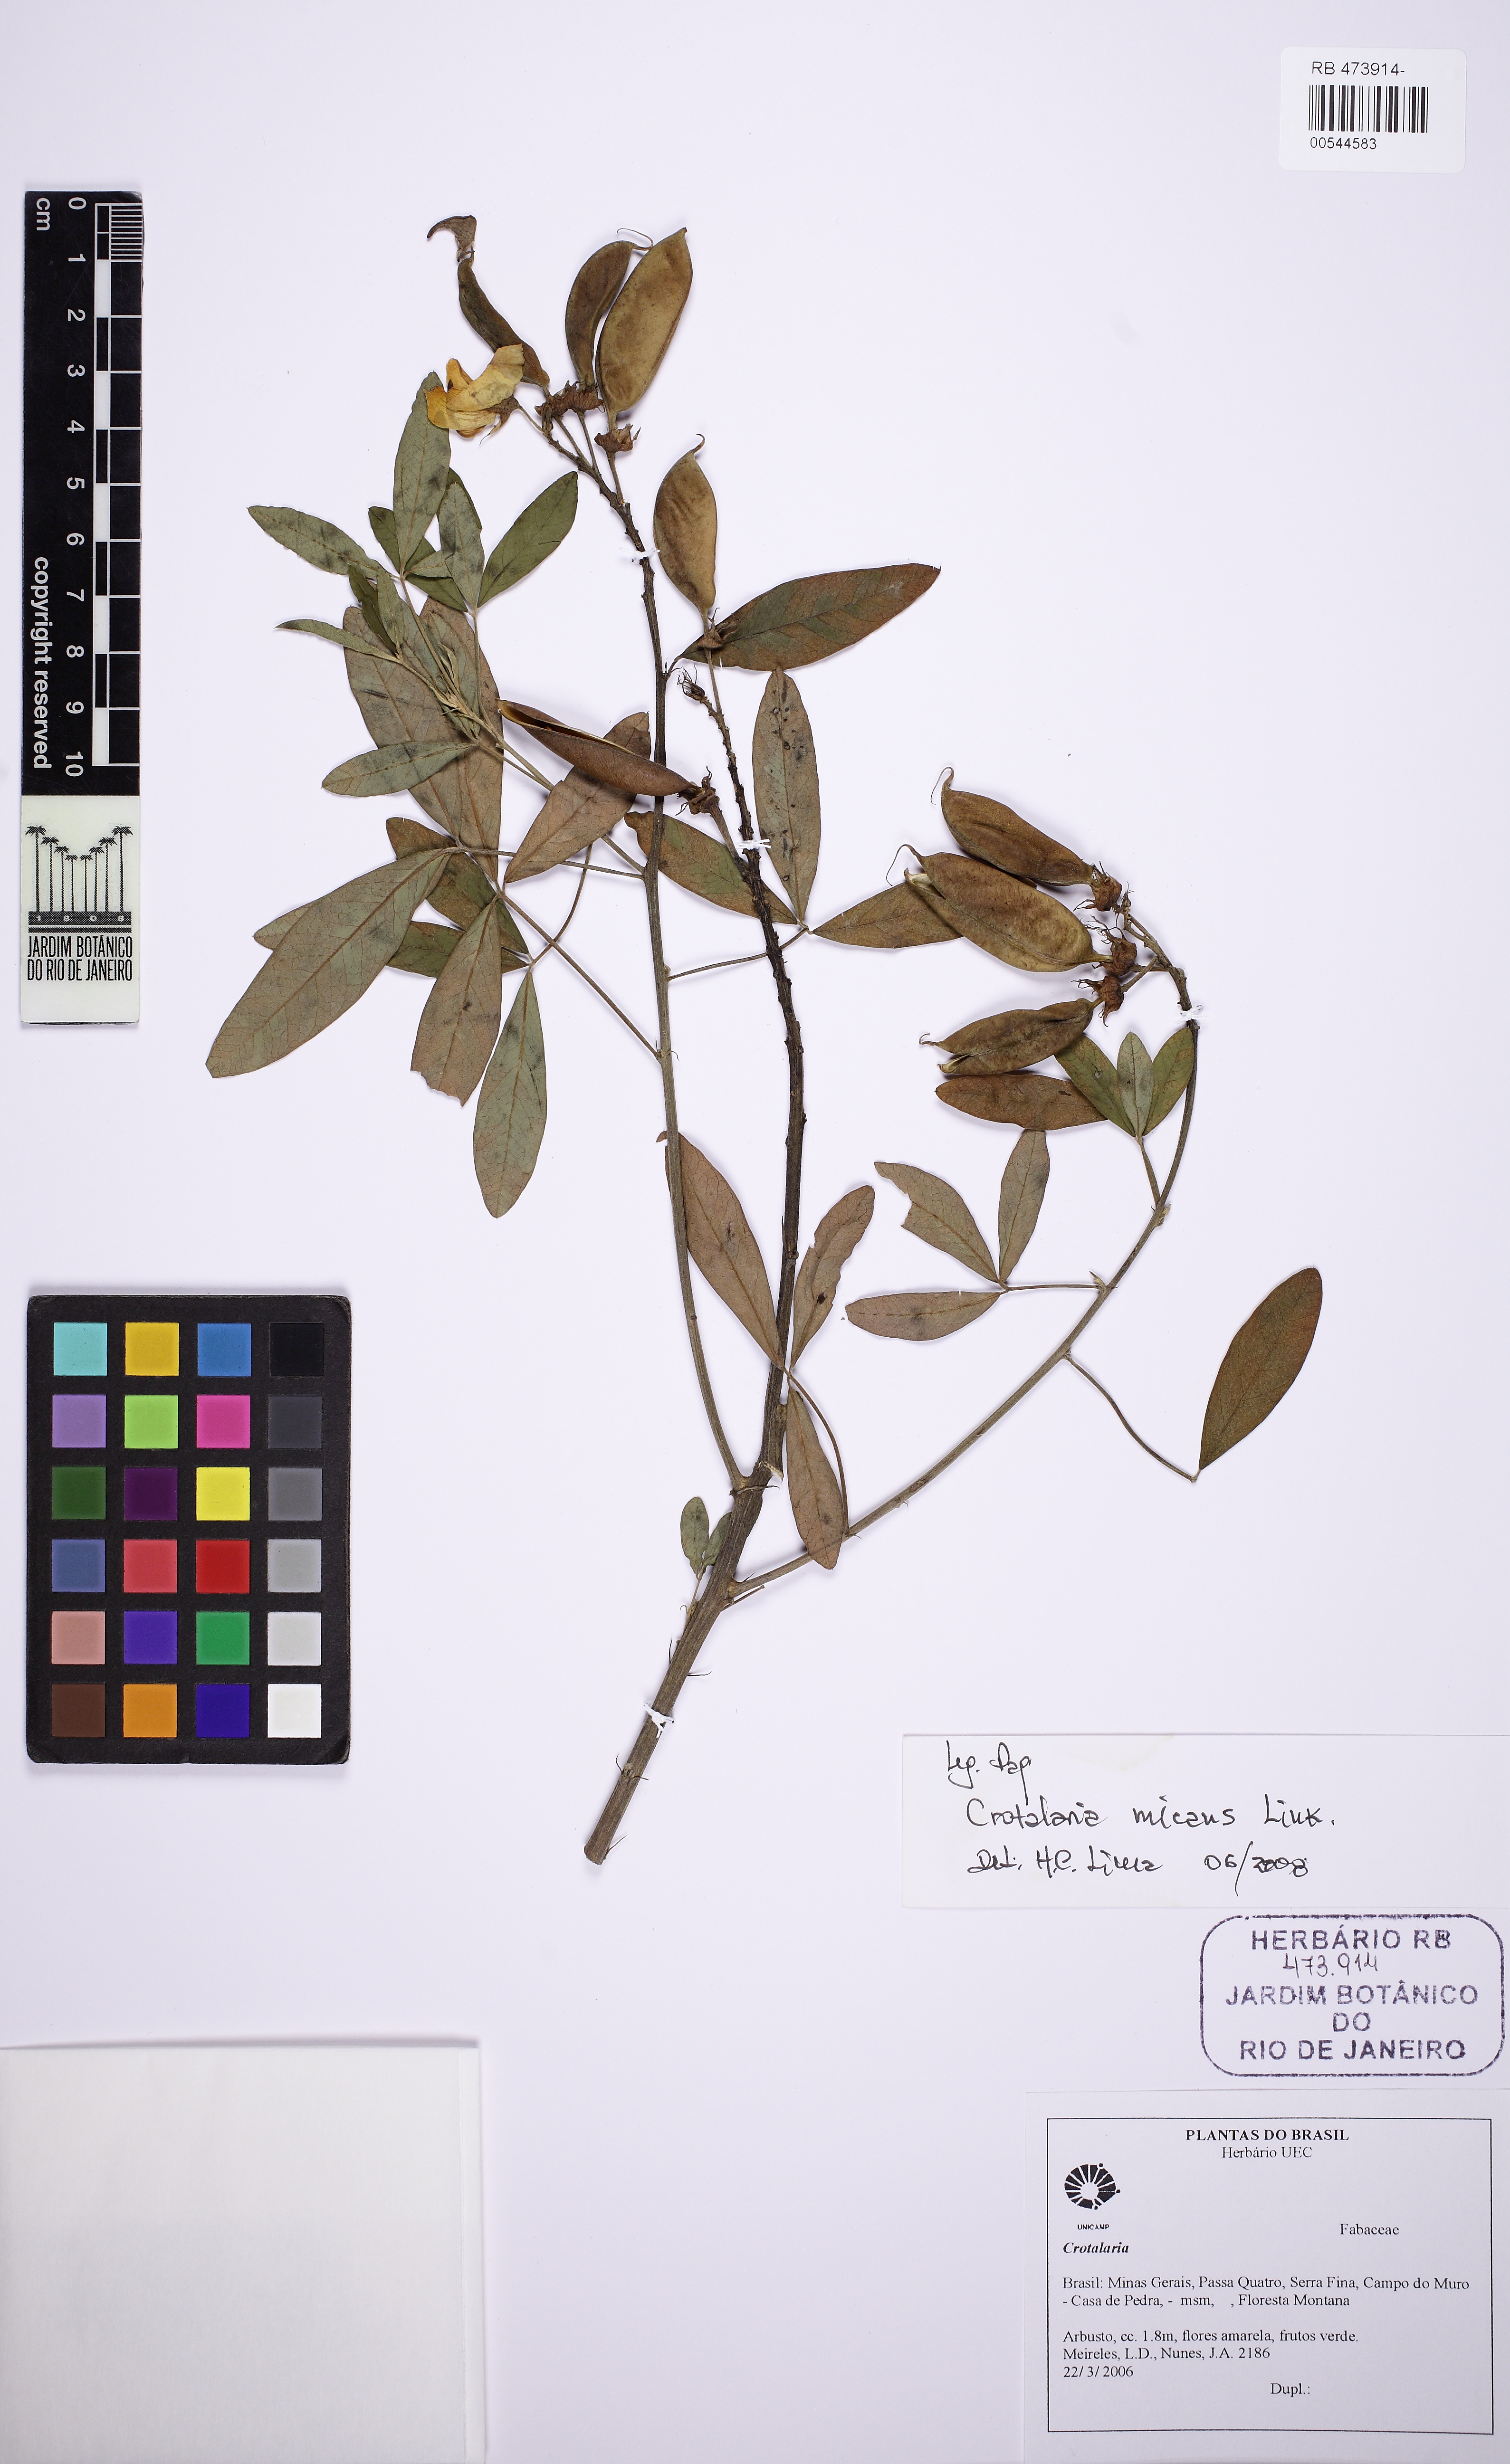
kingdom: Plantae
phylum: Tracheophyta
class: Magnoliopsida
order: Fabales
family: Fabaceae
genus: Crotalaria
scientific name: Crotalaria micans
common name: Caracas rattlebox
